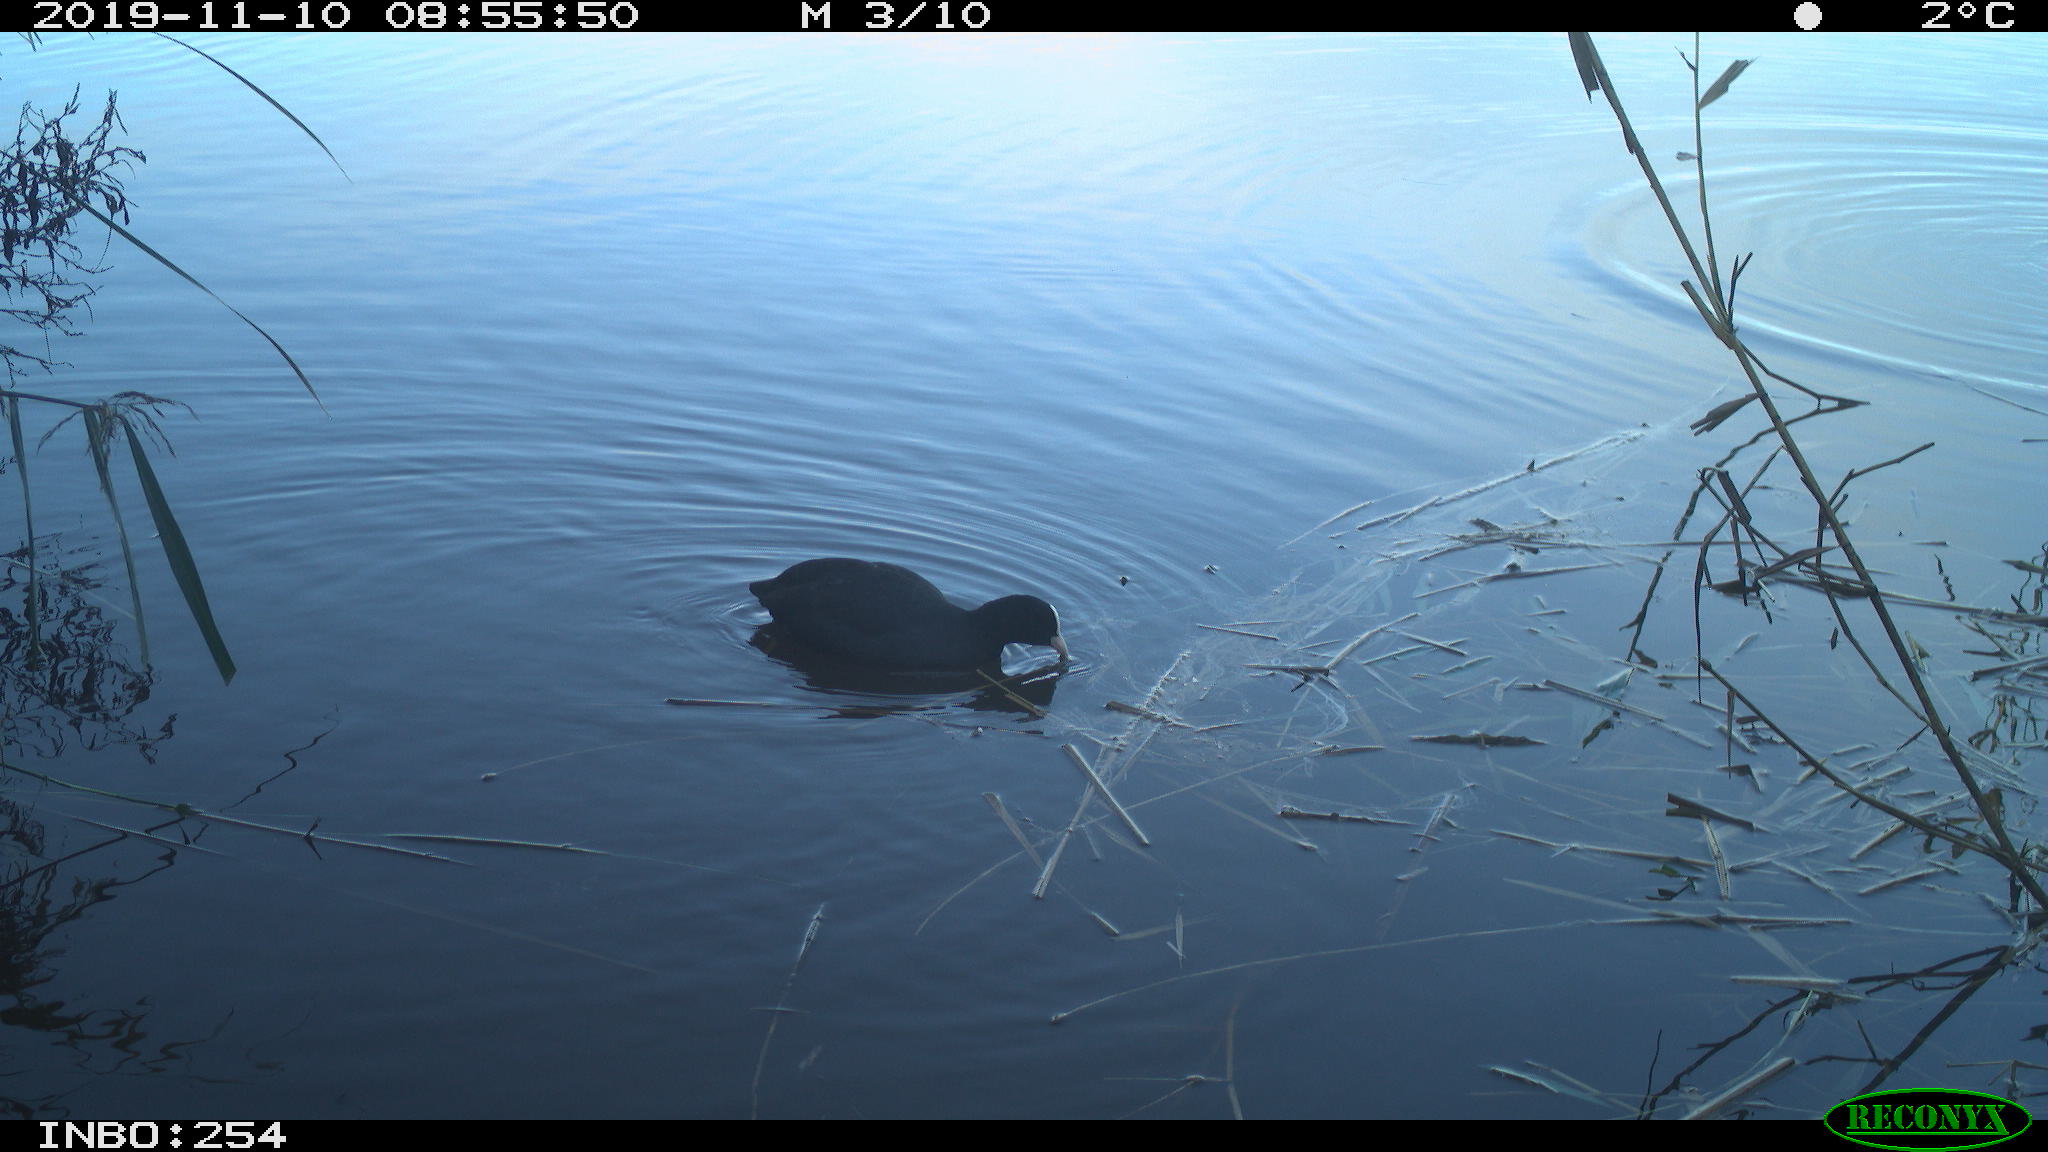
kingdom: Animalia
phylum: Chordata
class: Aves
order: Gruiformes
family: Rallidae
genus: Fulica
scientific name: Fulica atra
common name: Eurasian coot
